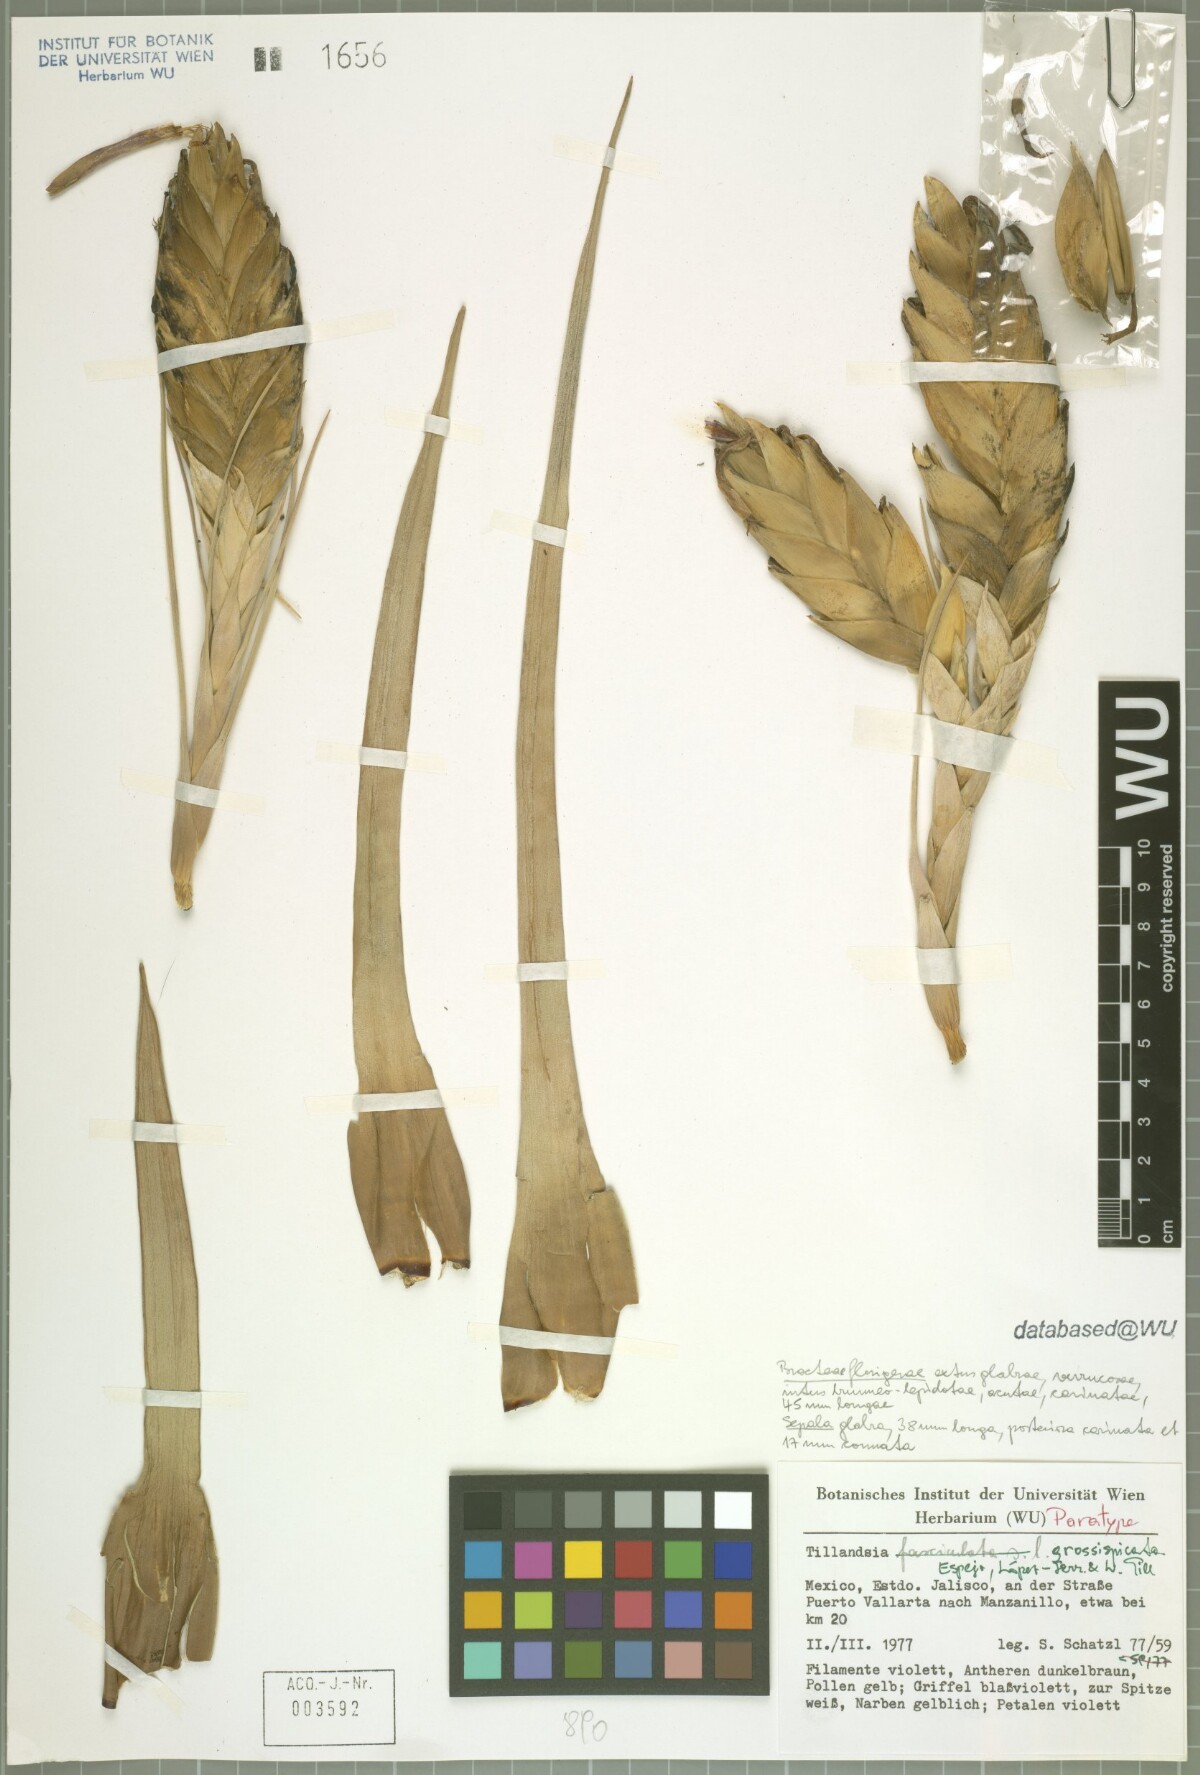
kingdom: Plantae
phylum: Tracheophyta
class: Liliopsida
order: Poales
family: Bromeliaceae
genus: Tillandsia
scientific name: Tillandsia grossispicata
